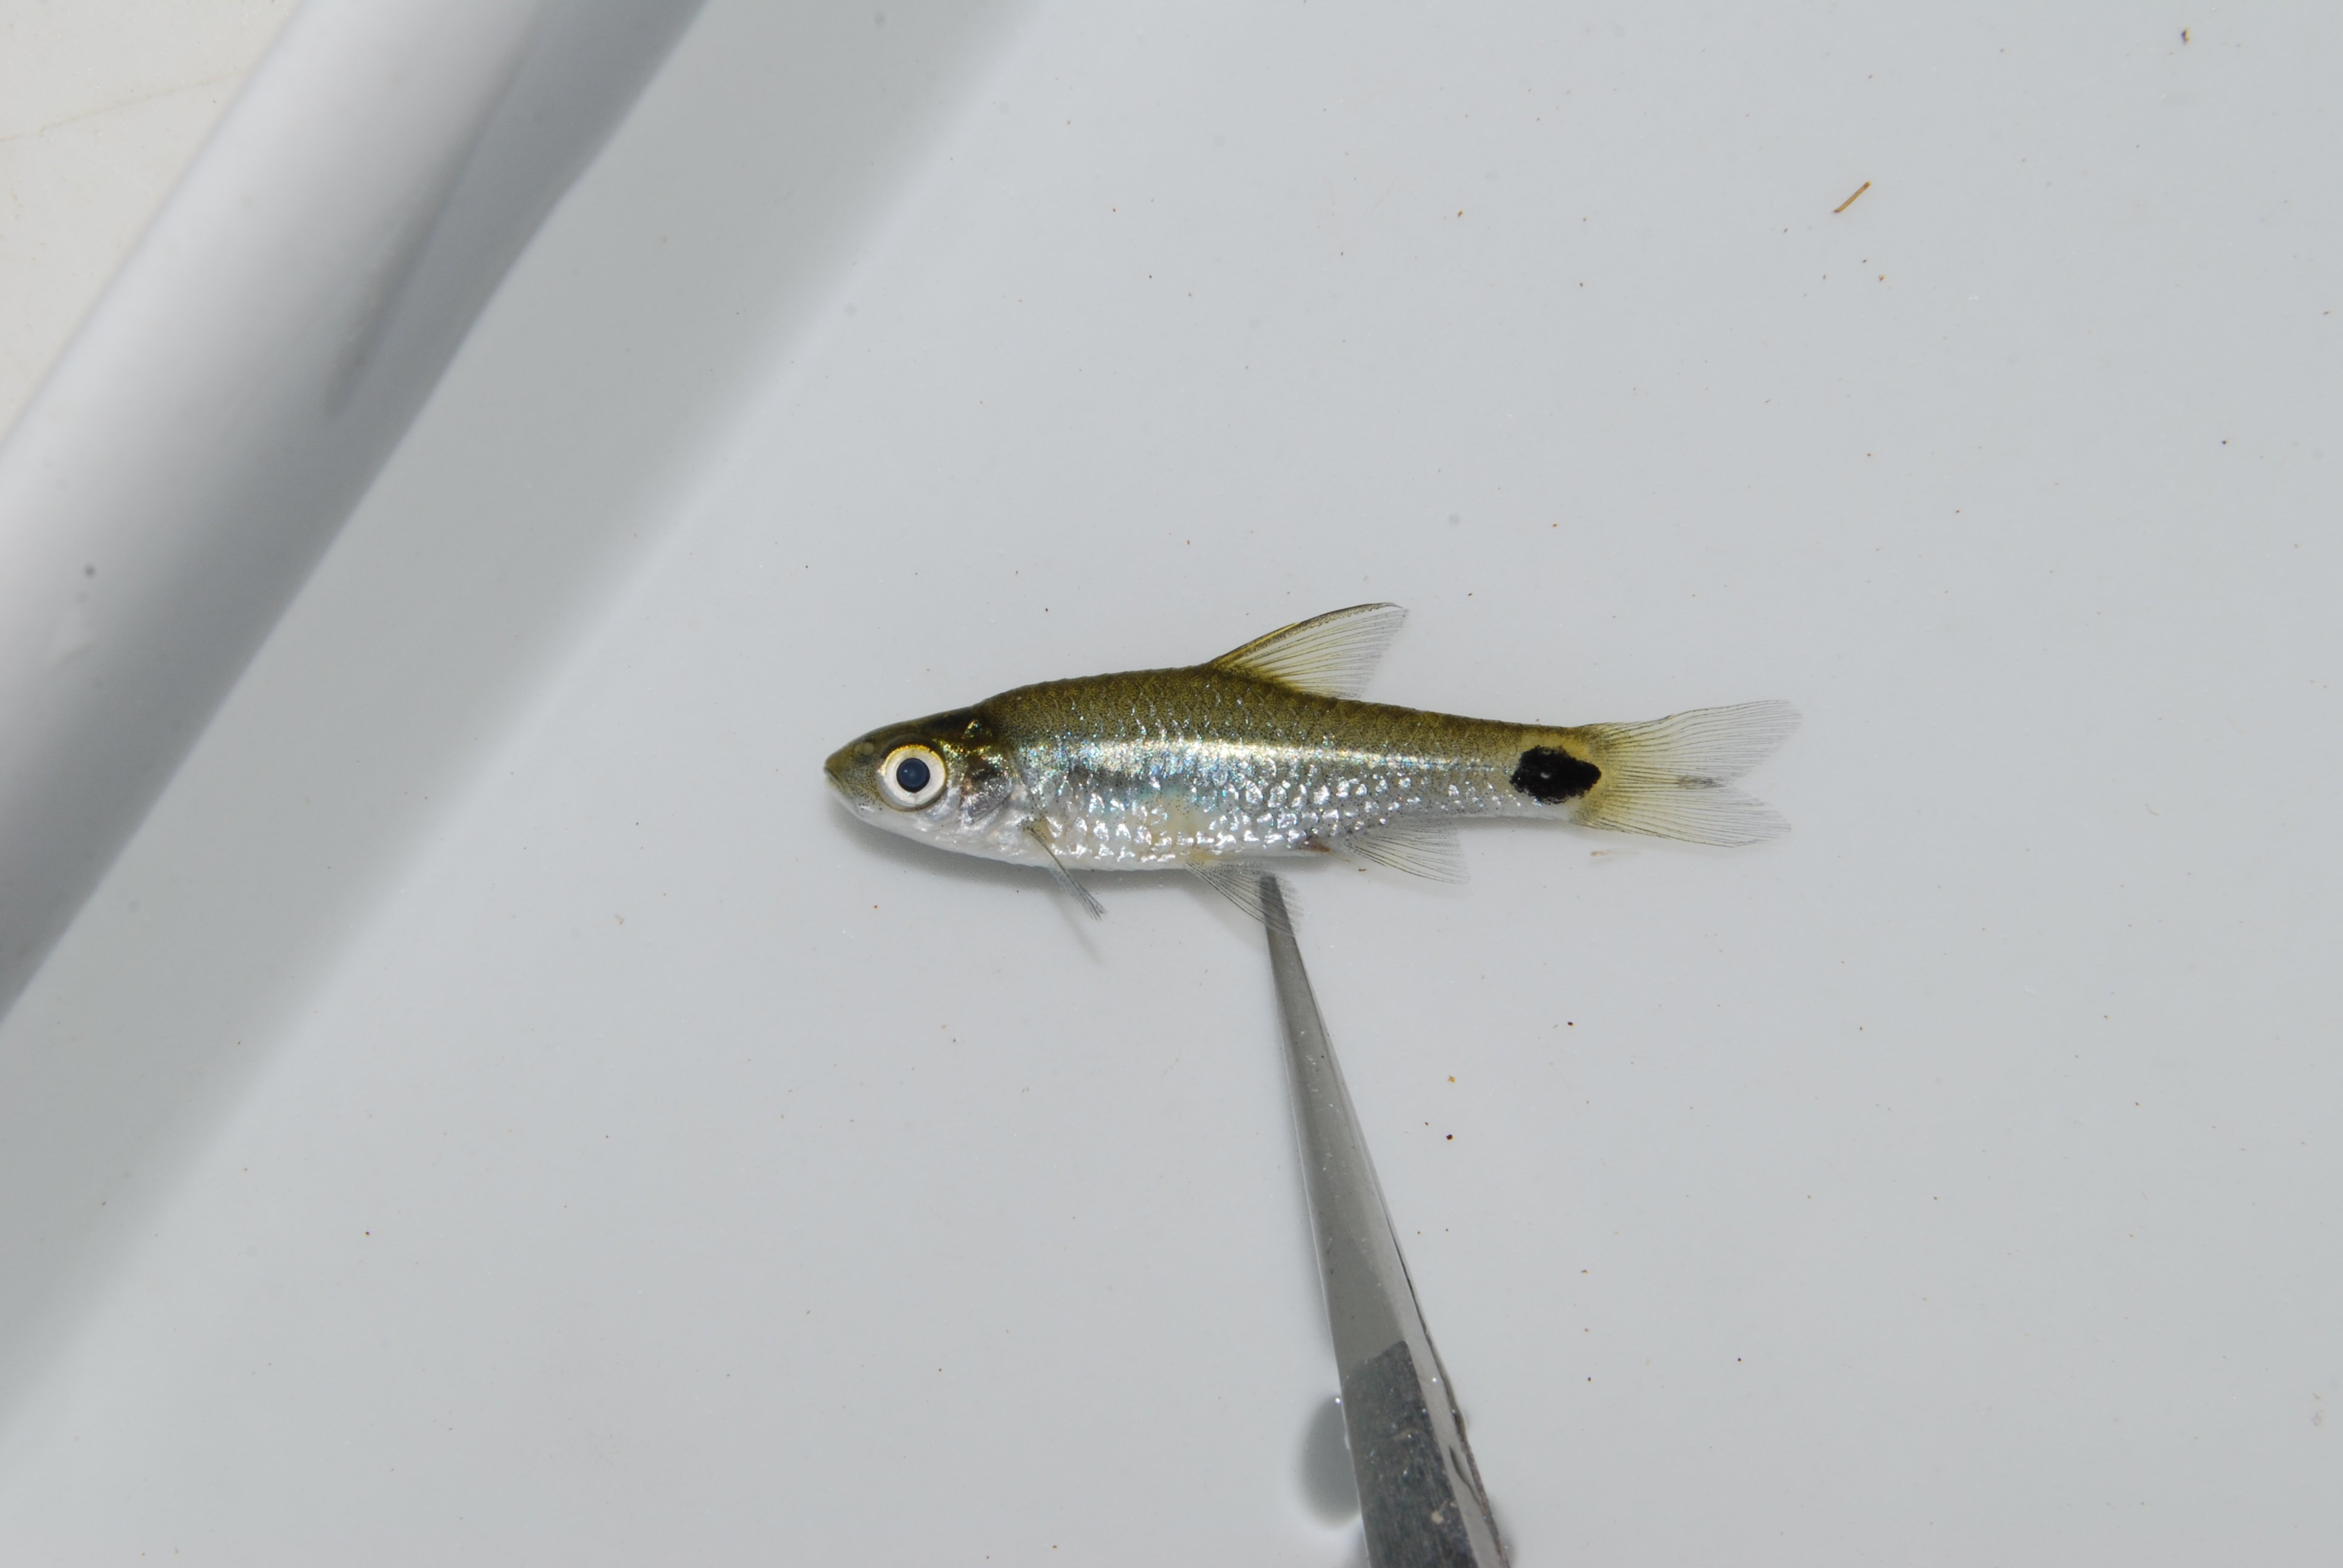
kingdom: Animalia
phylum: Chordata
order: Cypriniformes
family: Cyprinidae
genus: Enteromius
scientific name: Enteromius afrovernayi
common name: Spottail barb
